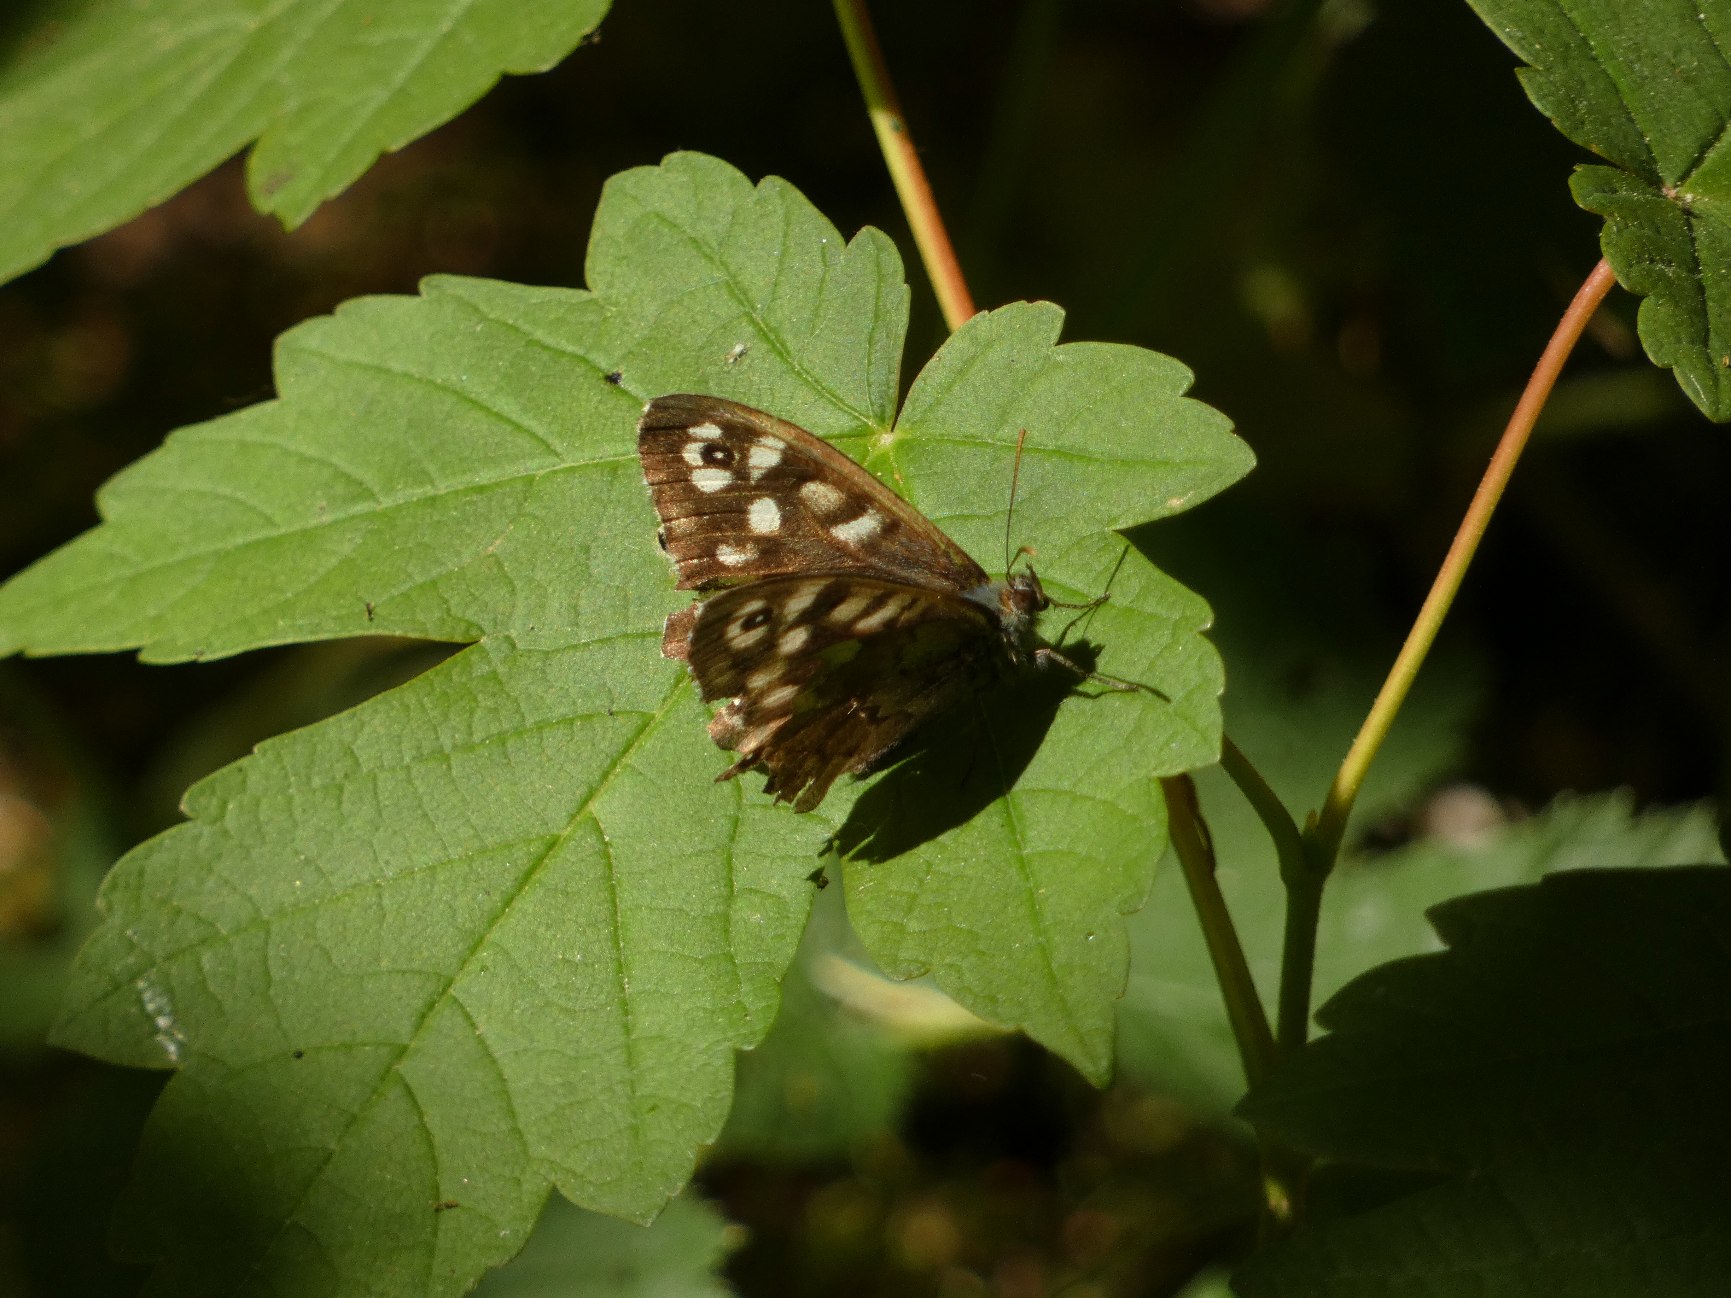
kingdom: Animalia
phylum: Arthropoda
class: Insecta
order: Lepidoptera
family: Nymphalidae
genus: Pararge
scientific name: Pararge aegeria
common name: Skovrandøje
